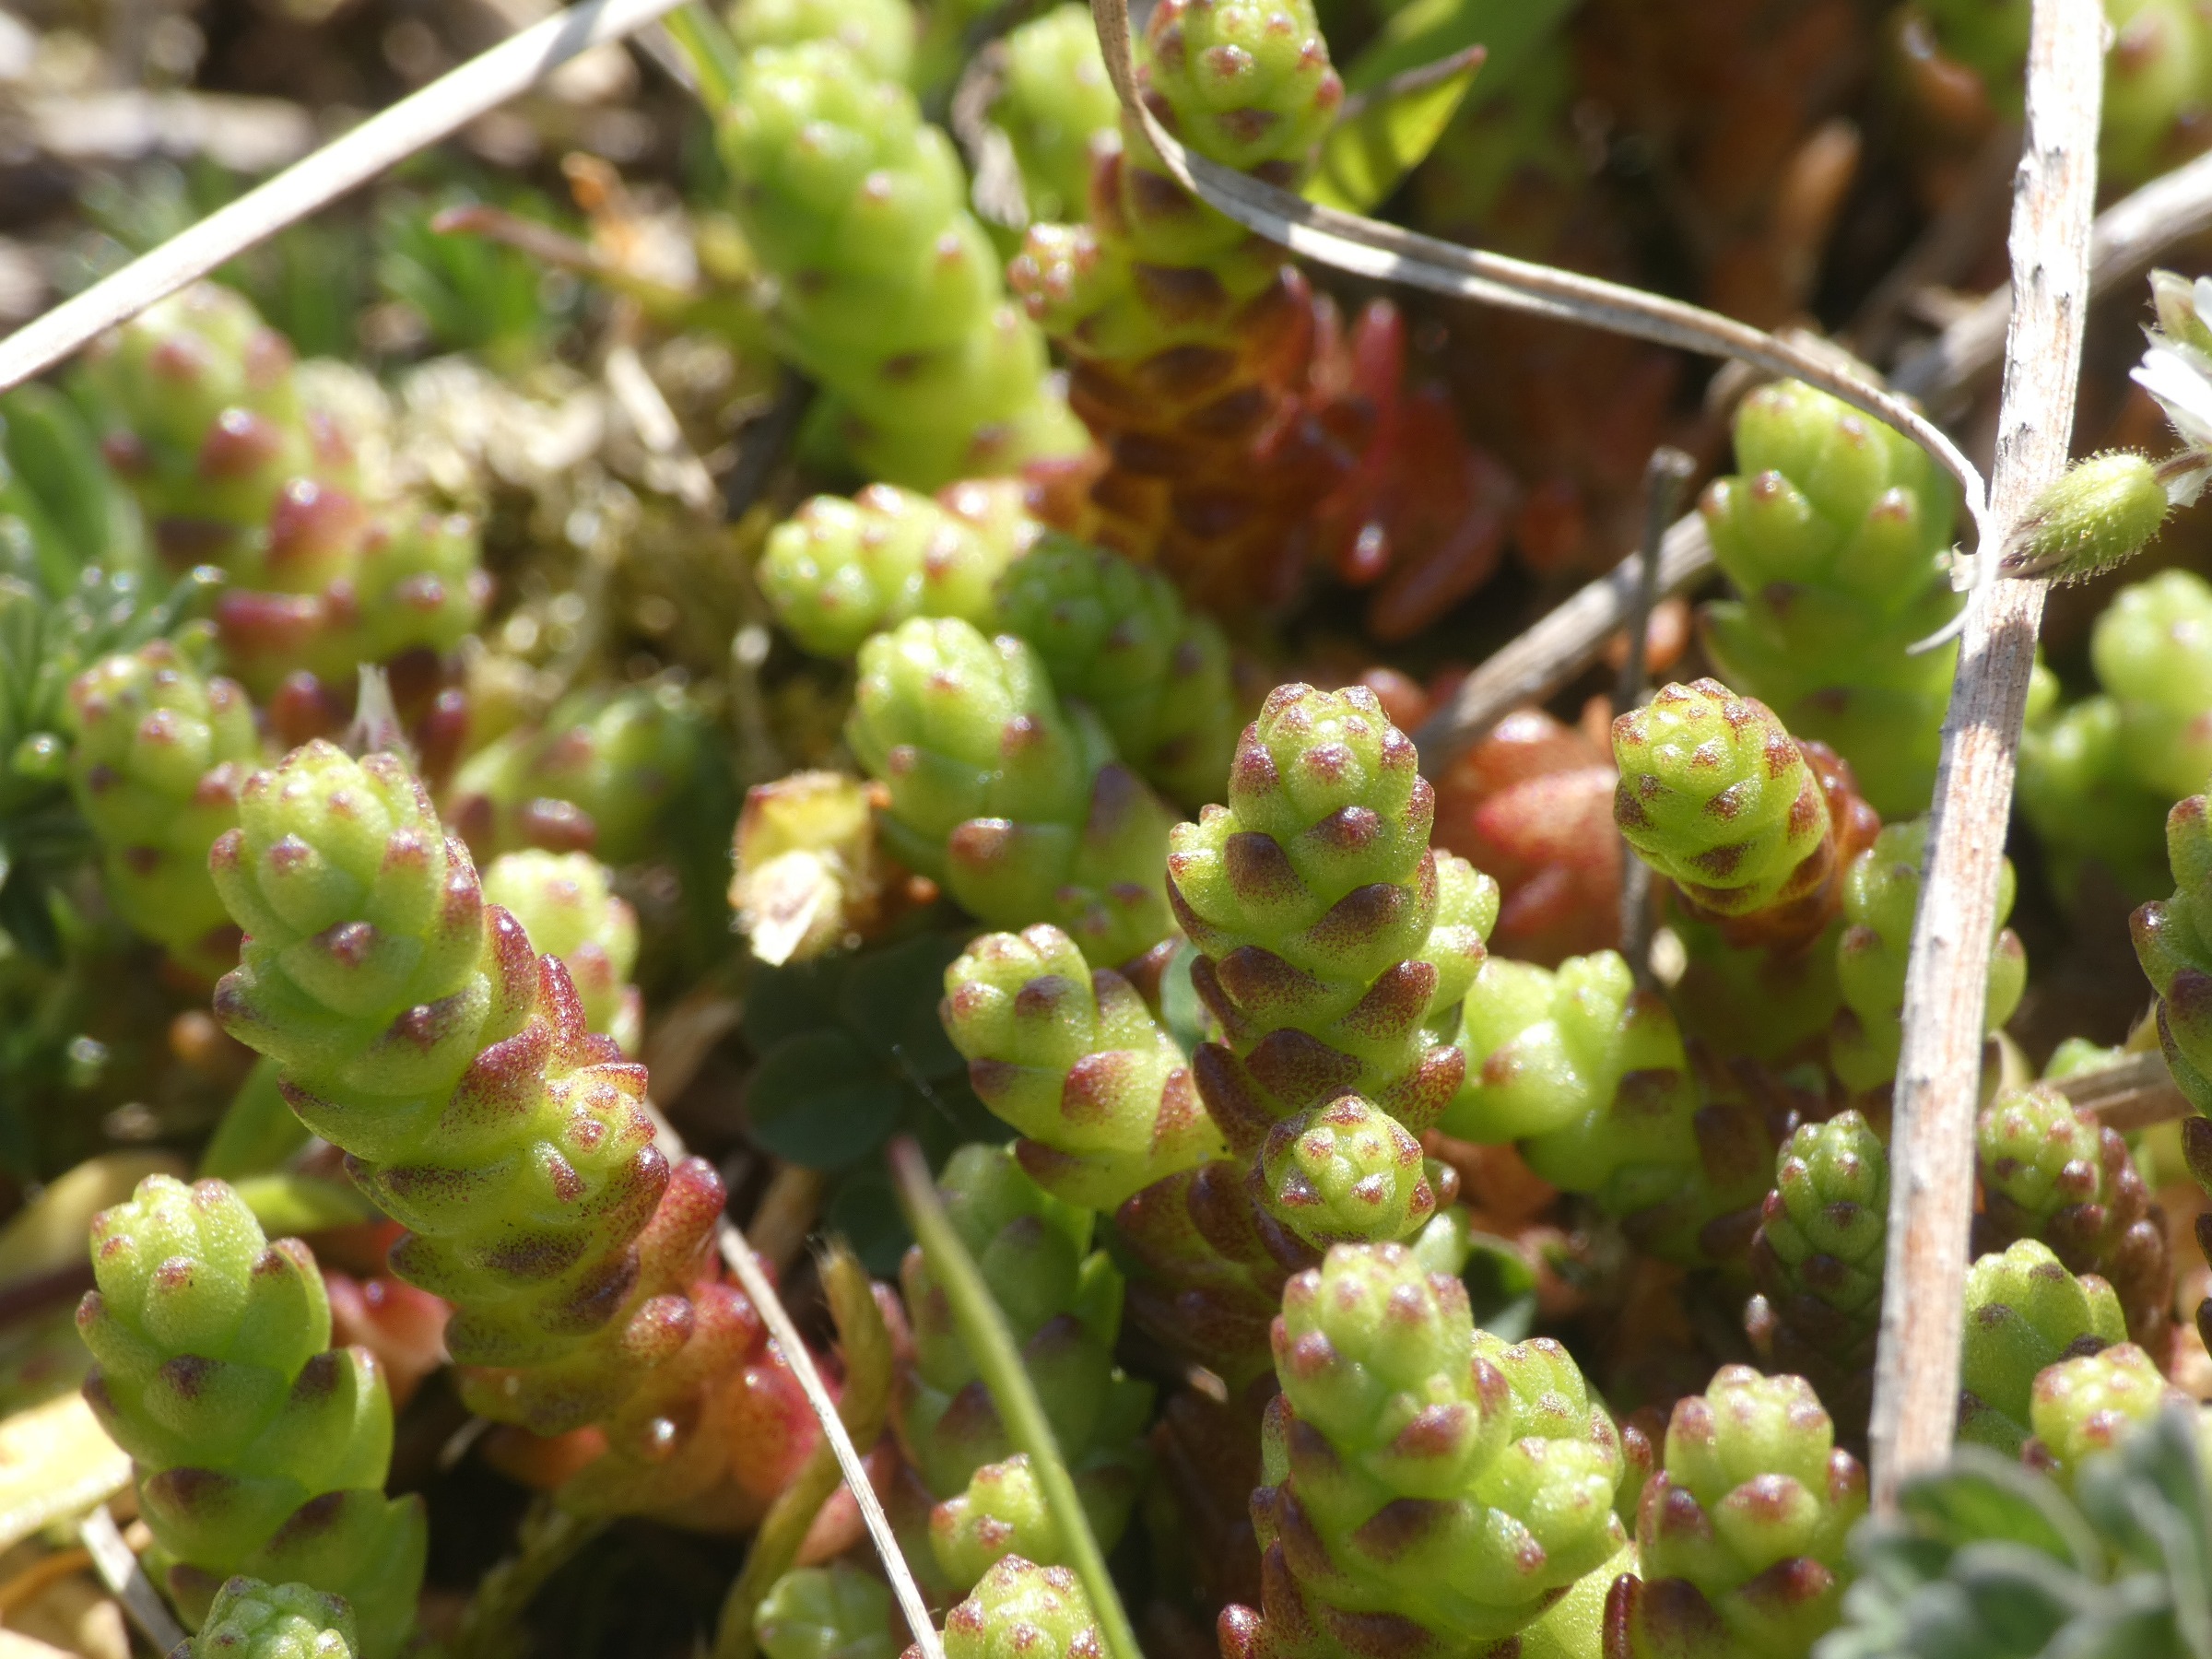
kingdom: Plantae
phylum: Tracheophyta
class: Magnoliopsida
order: Saxifragales
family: Crassulaceae
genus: Sedum
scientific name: Sedum acre
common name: Bidende stenurt
